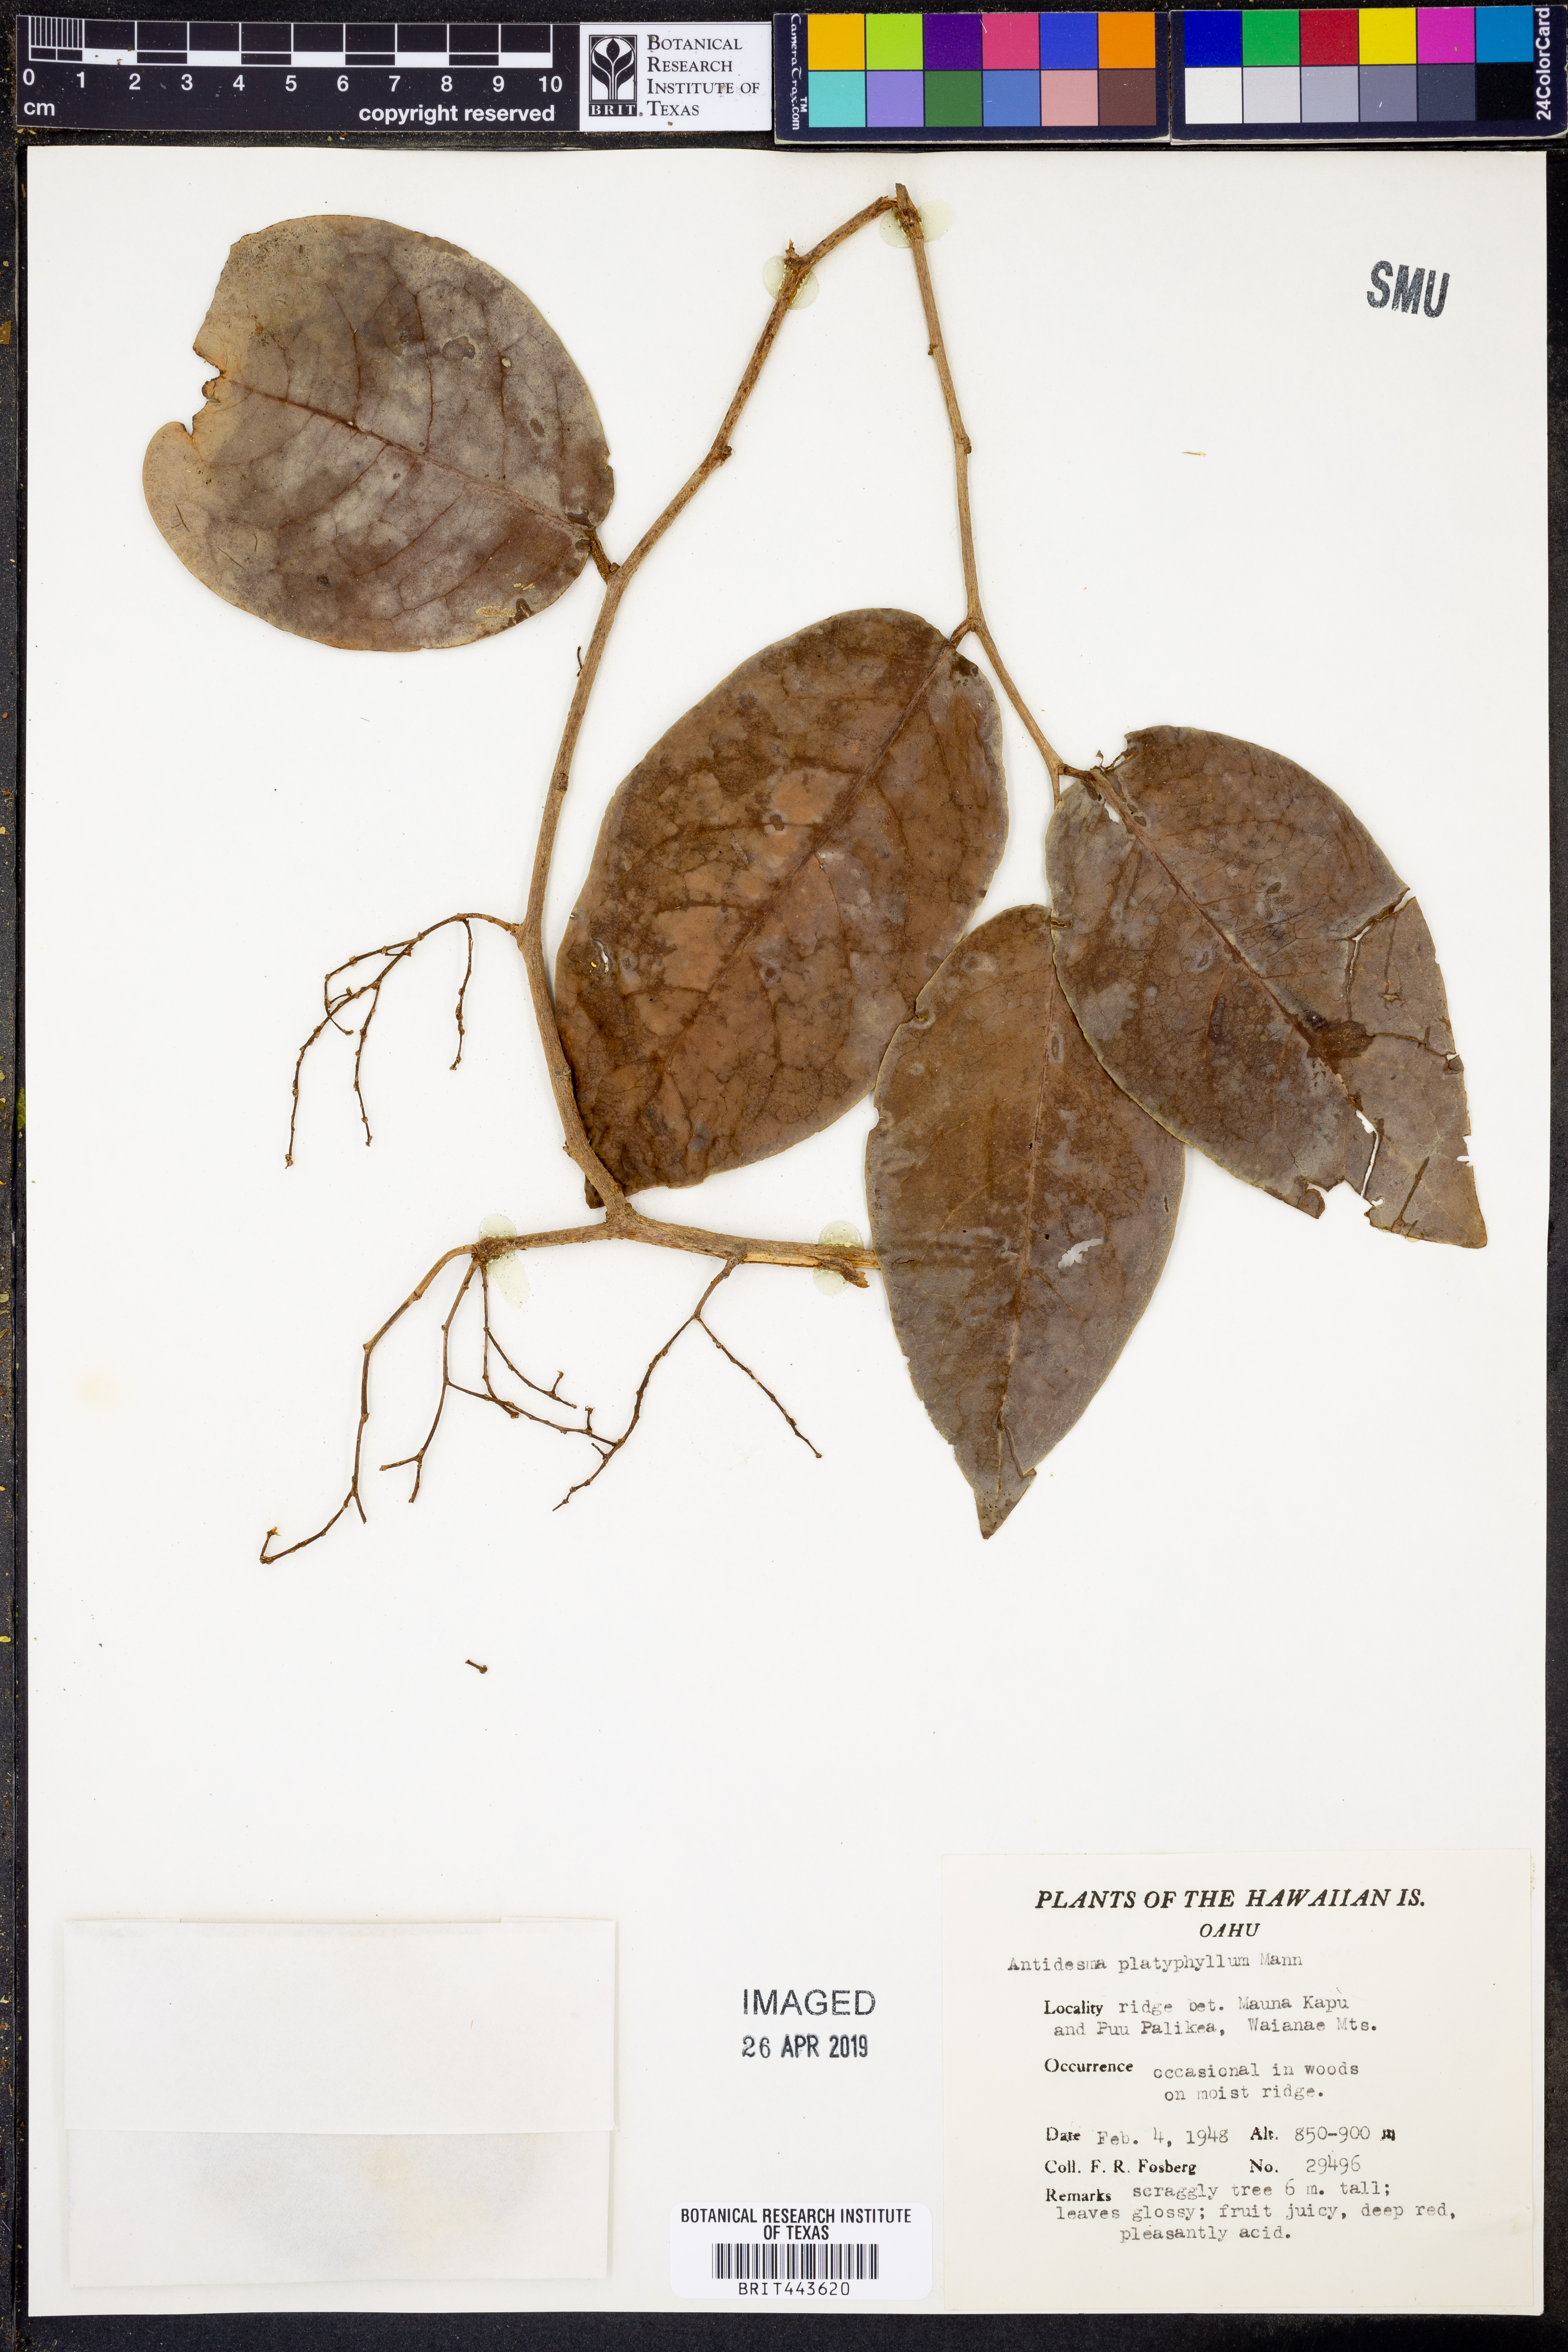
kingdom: Plantae
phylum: Tracheophyta
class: Magnoliopsida
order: Malpighiales
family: Phyllanthaceae
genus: Antidesma
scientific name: Antidesma platyphyllum
